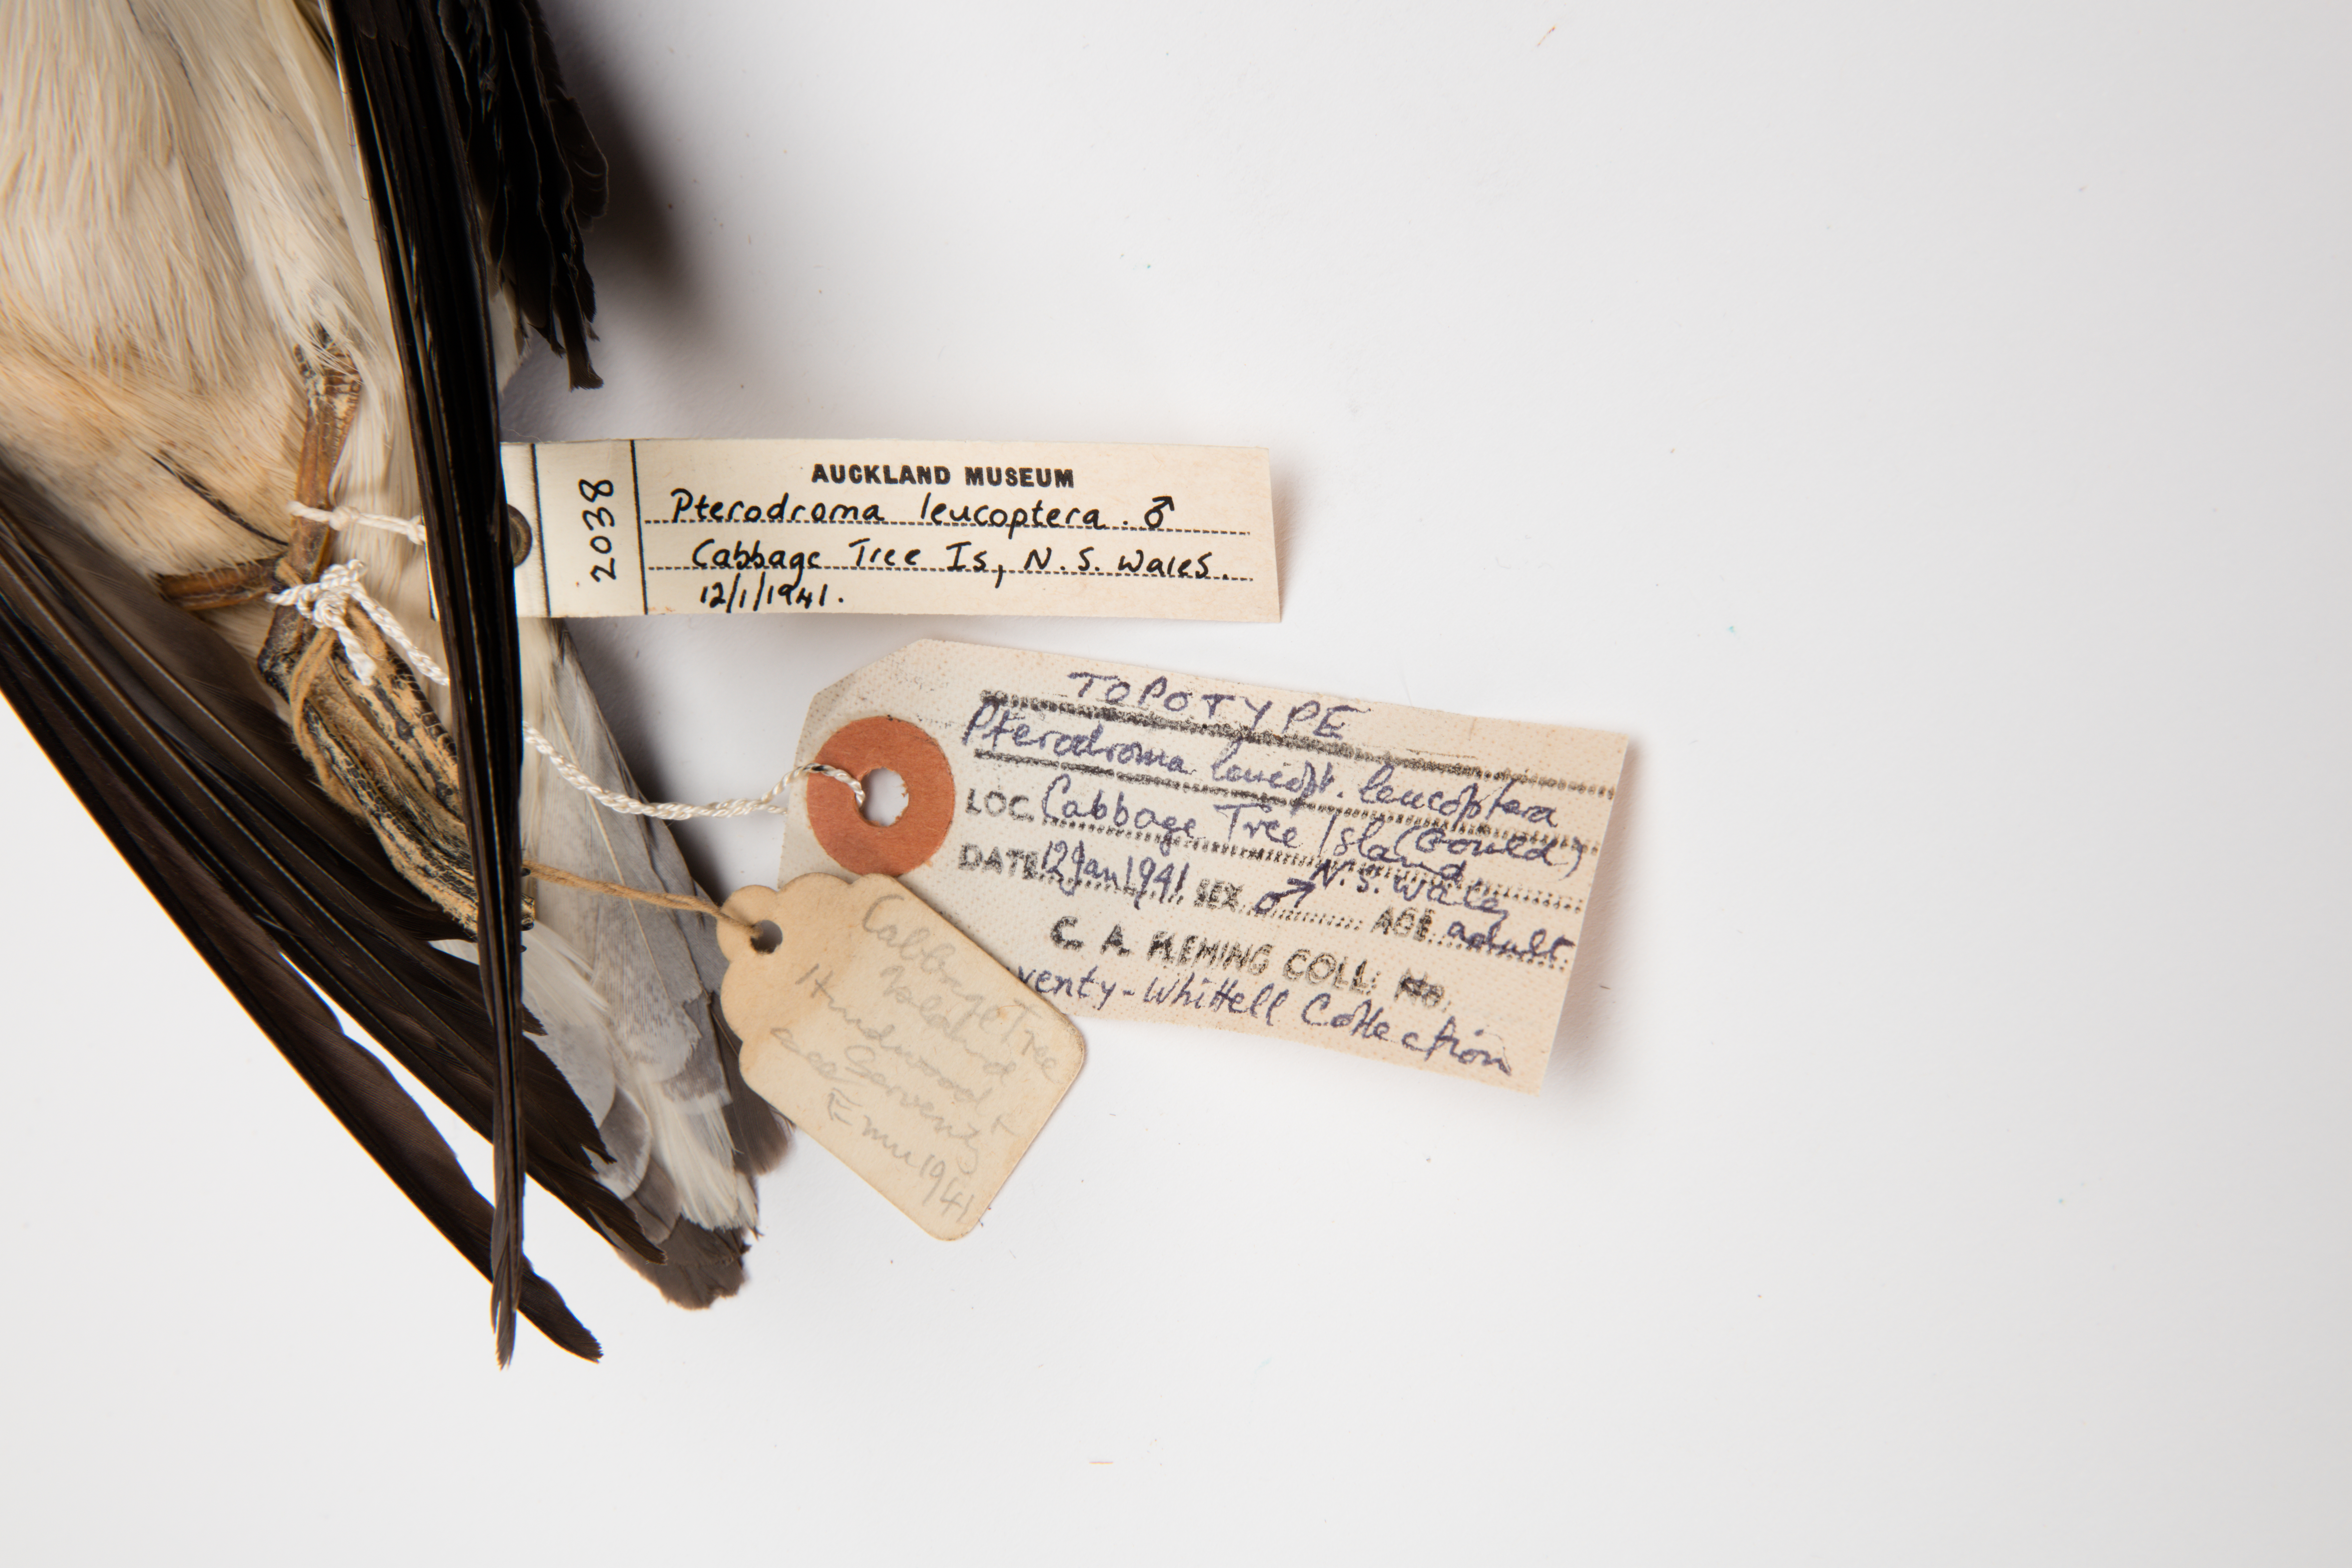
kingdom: Animalia
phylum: Chordata
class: Aves
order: Procellariiformes
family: Procellariidae
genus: Pterodroma
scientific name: Pterodroma leucoptera
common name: Gould's petrel
